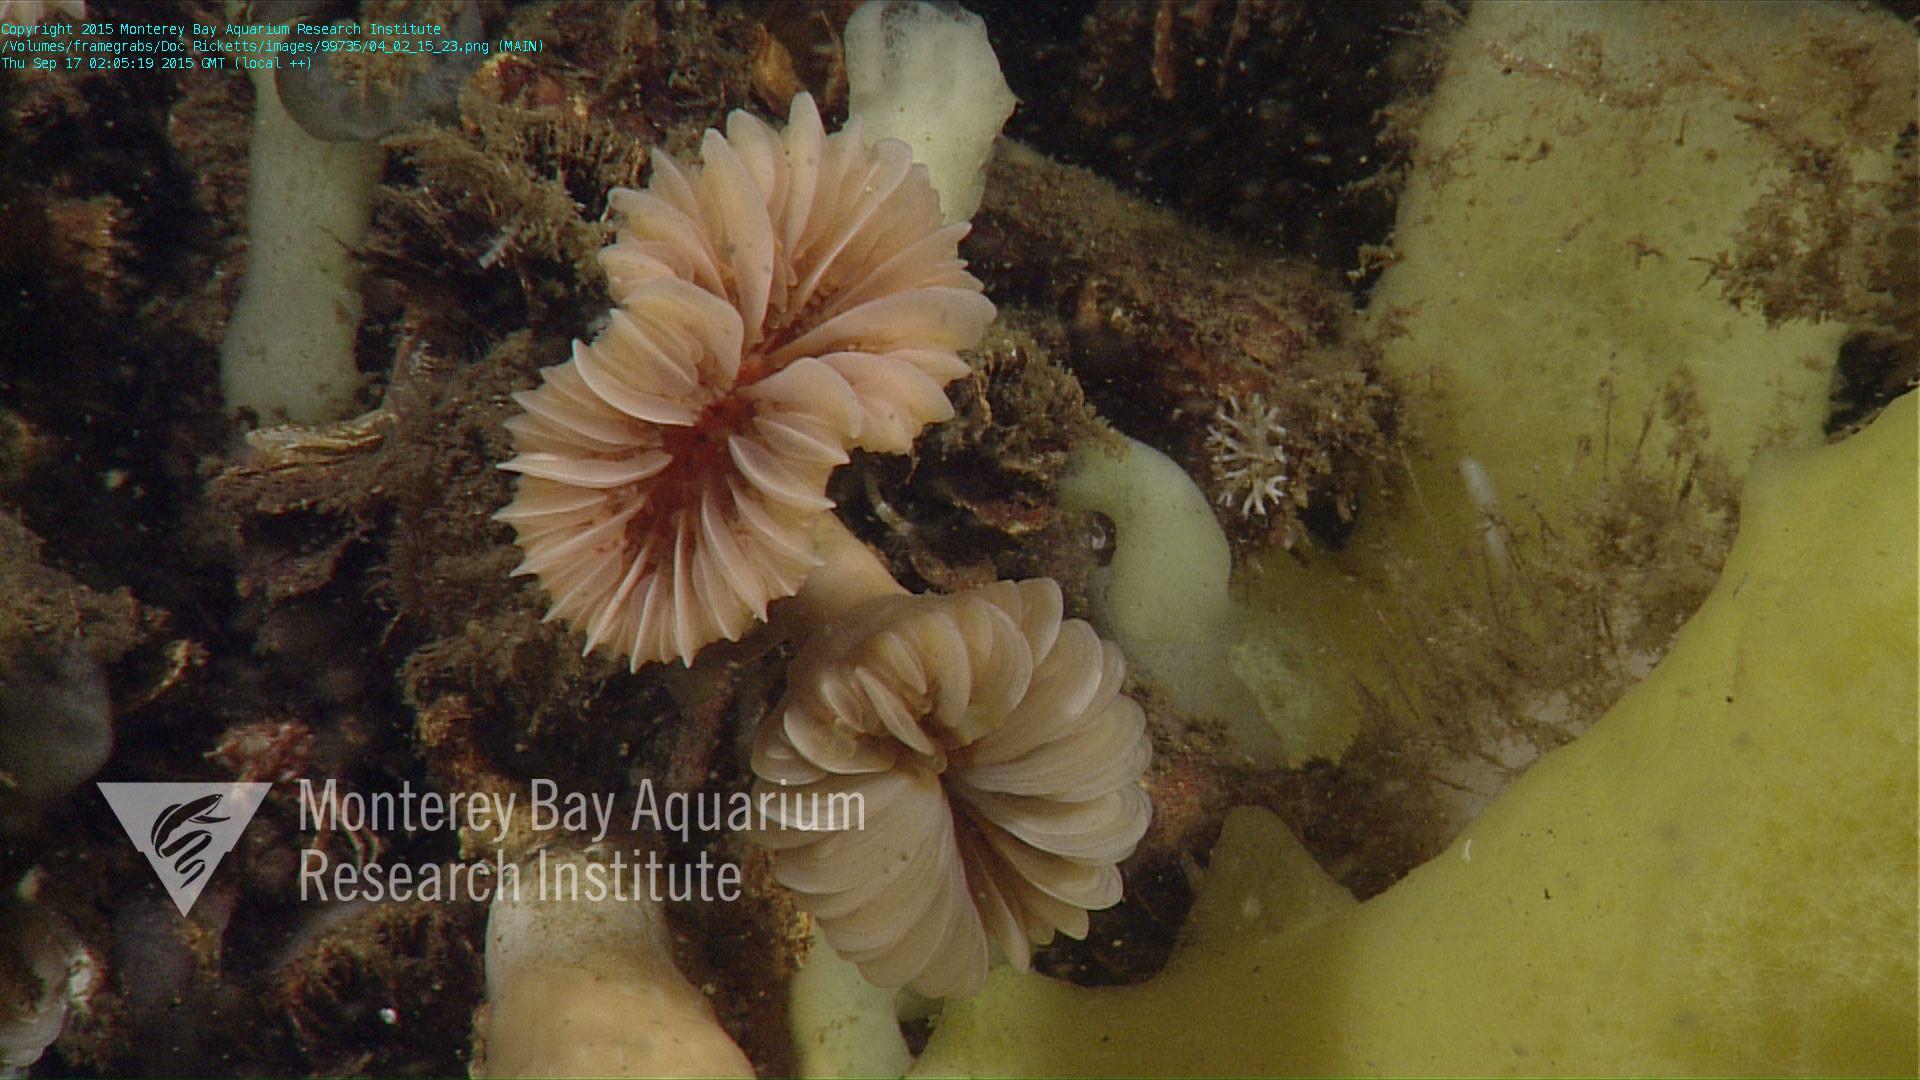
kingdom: Animalia
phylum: Cnidaria
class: Anthozoa
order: Scleractinia
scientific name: Scleractinia
